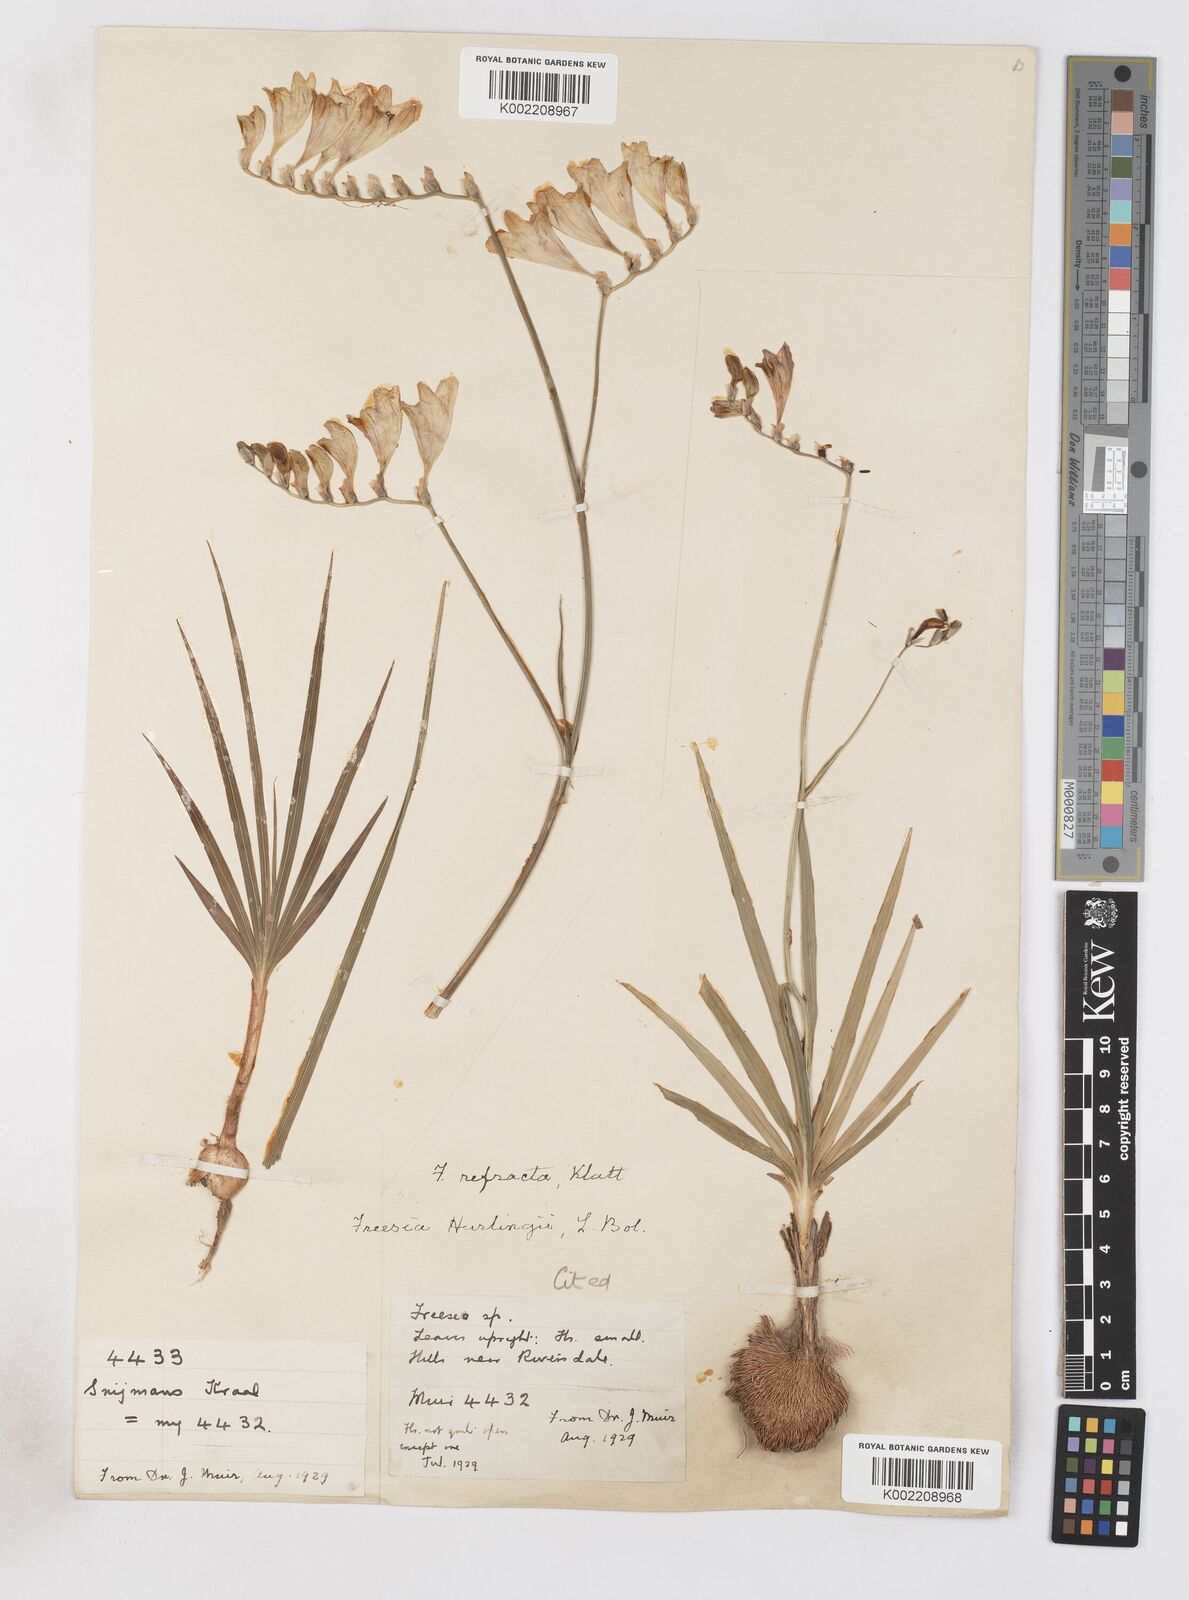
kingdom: Plantae
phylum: Tracheophyta
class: Liliopsida
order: Asparagales
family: Iridaceae
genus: Freesia
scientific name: Freesia refracta
